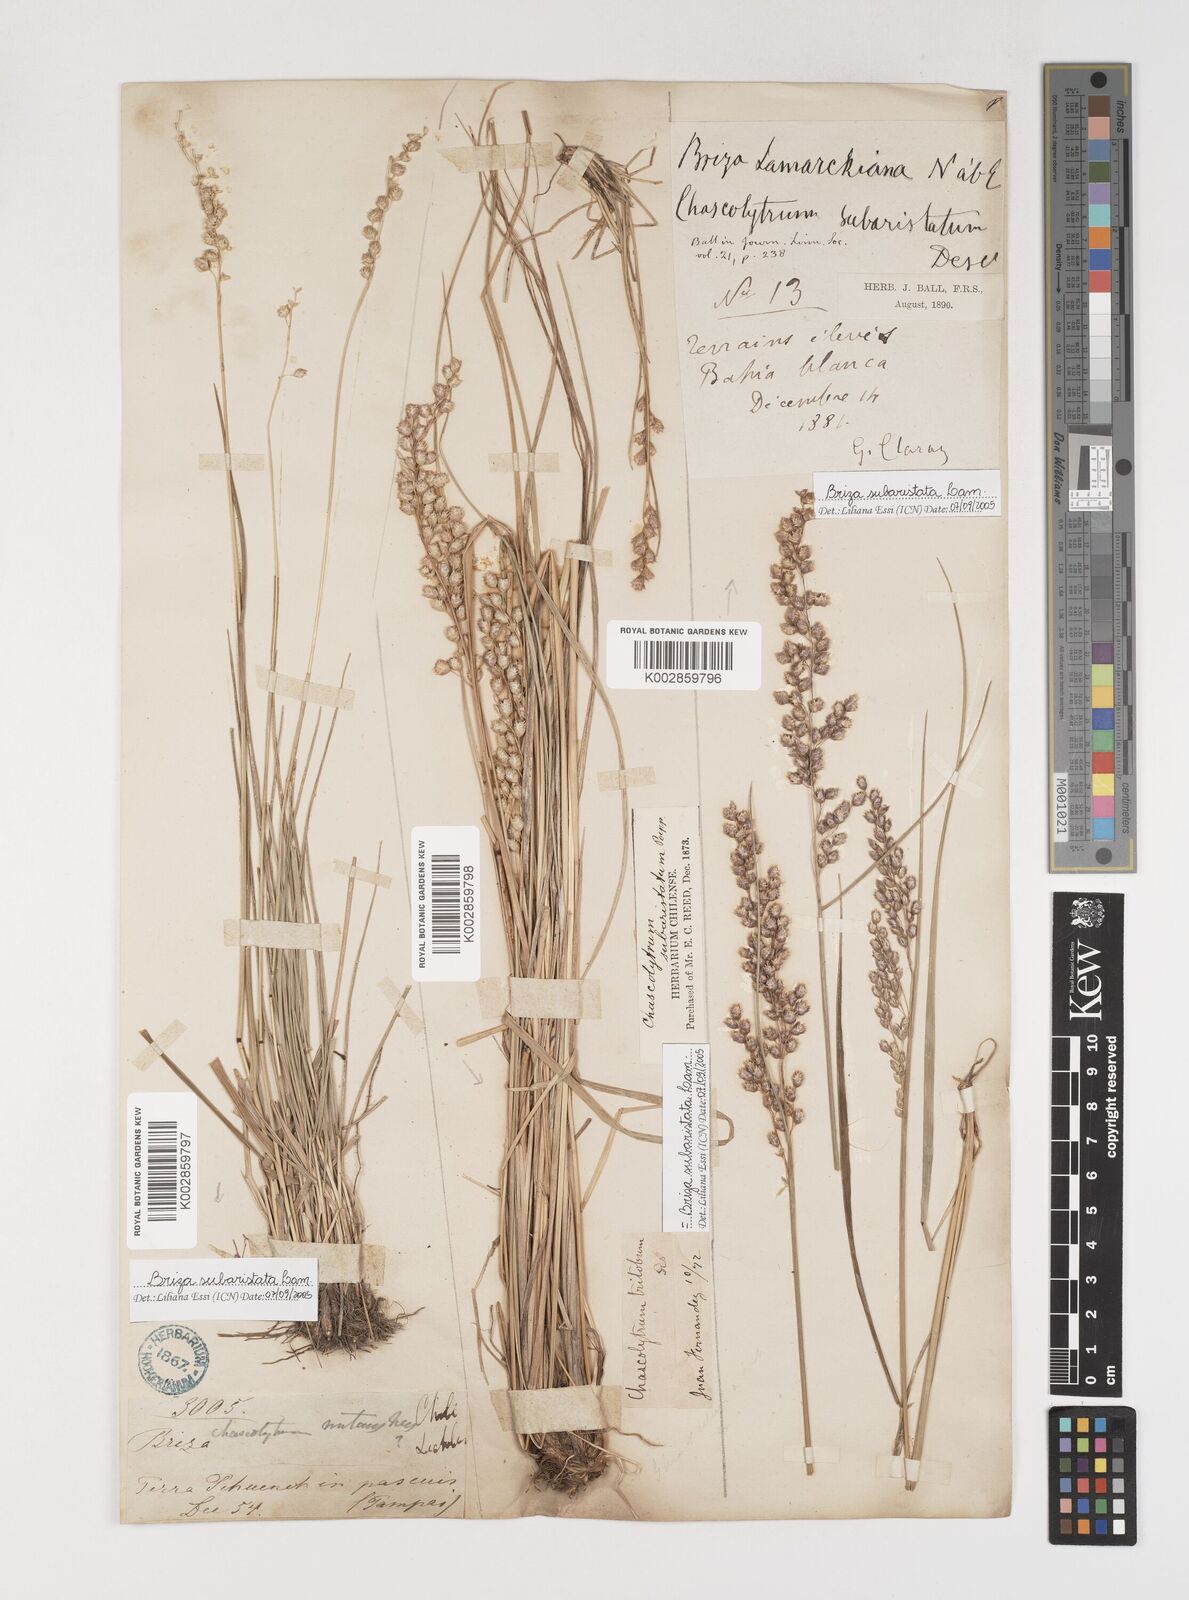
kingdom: Plantae
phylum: Tracheophyta
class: Liliopsida
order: Poales
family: Poaceae
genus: Chascolytrum
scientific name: Chascolytrum subaristatum
